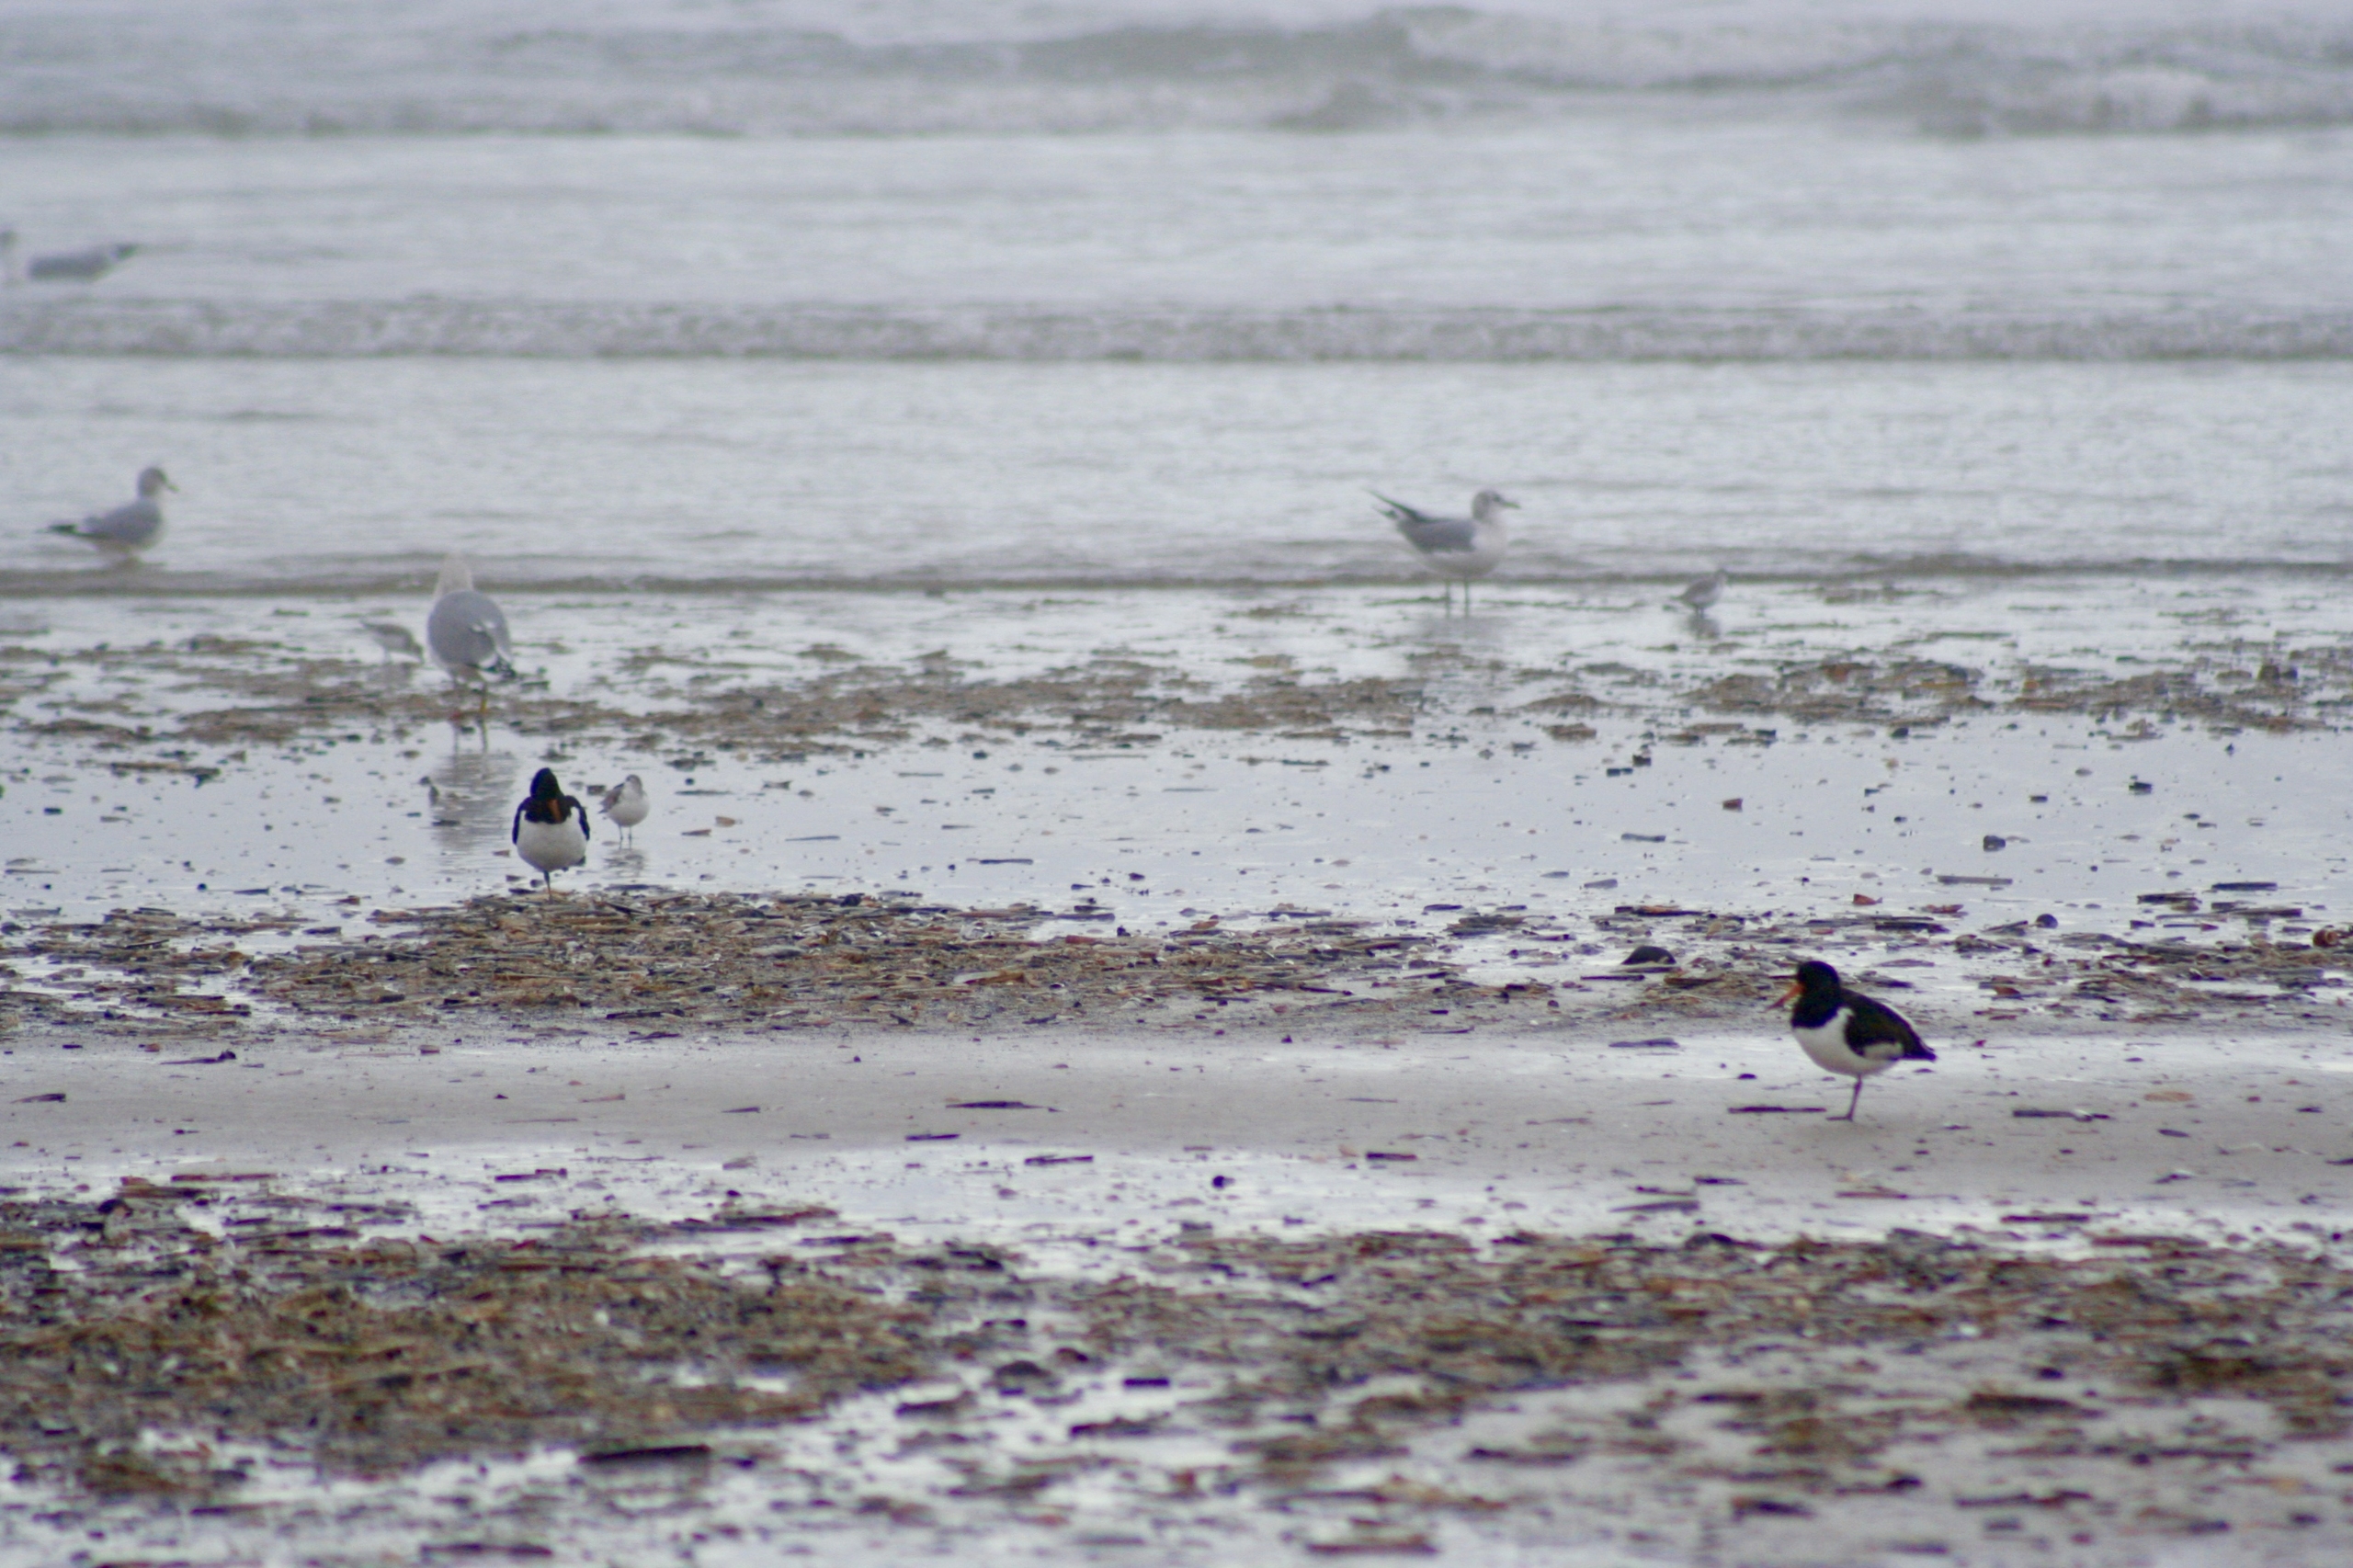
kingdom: Animalia
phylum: Chordata
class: Aves
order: Charadriiformes
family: Haematopodidae
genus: Haematopus
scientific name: Haematopus ostralegus
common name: Strandskade
